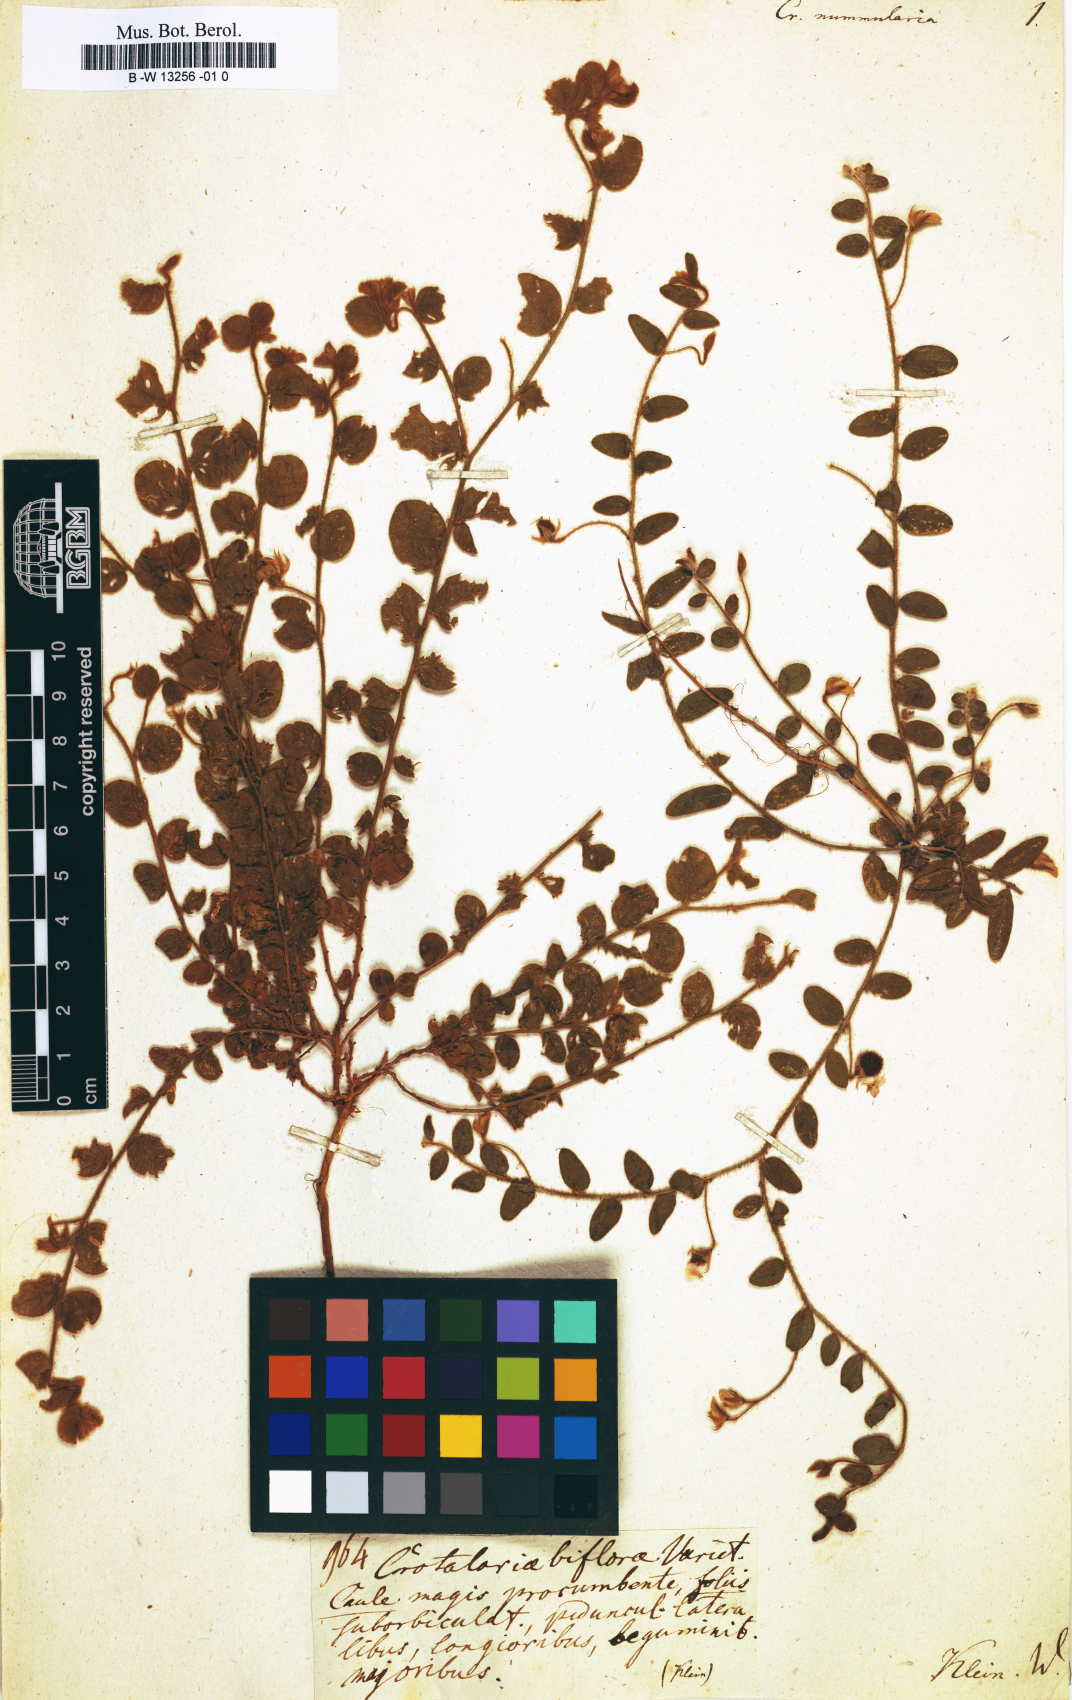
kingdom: Plantae
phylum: Tracheophyta
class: Magnoliopsida
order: Fabales
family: Fabaceae
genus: Crotalaria
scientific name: Crotalaria angulata
